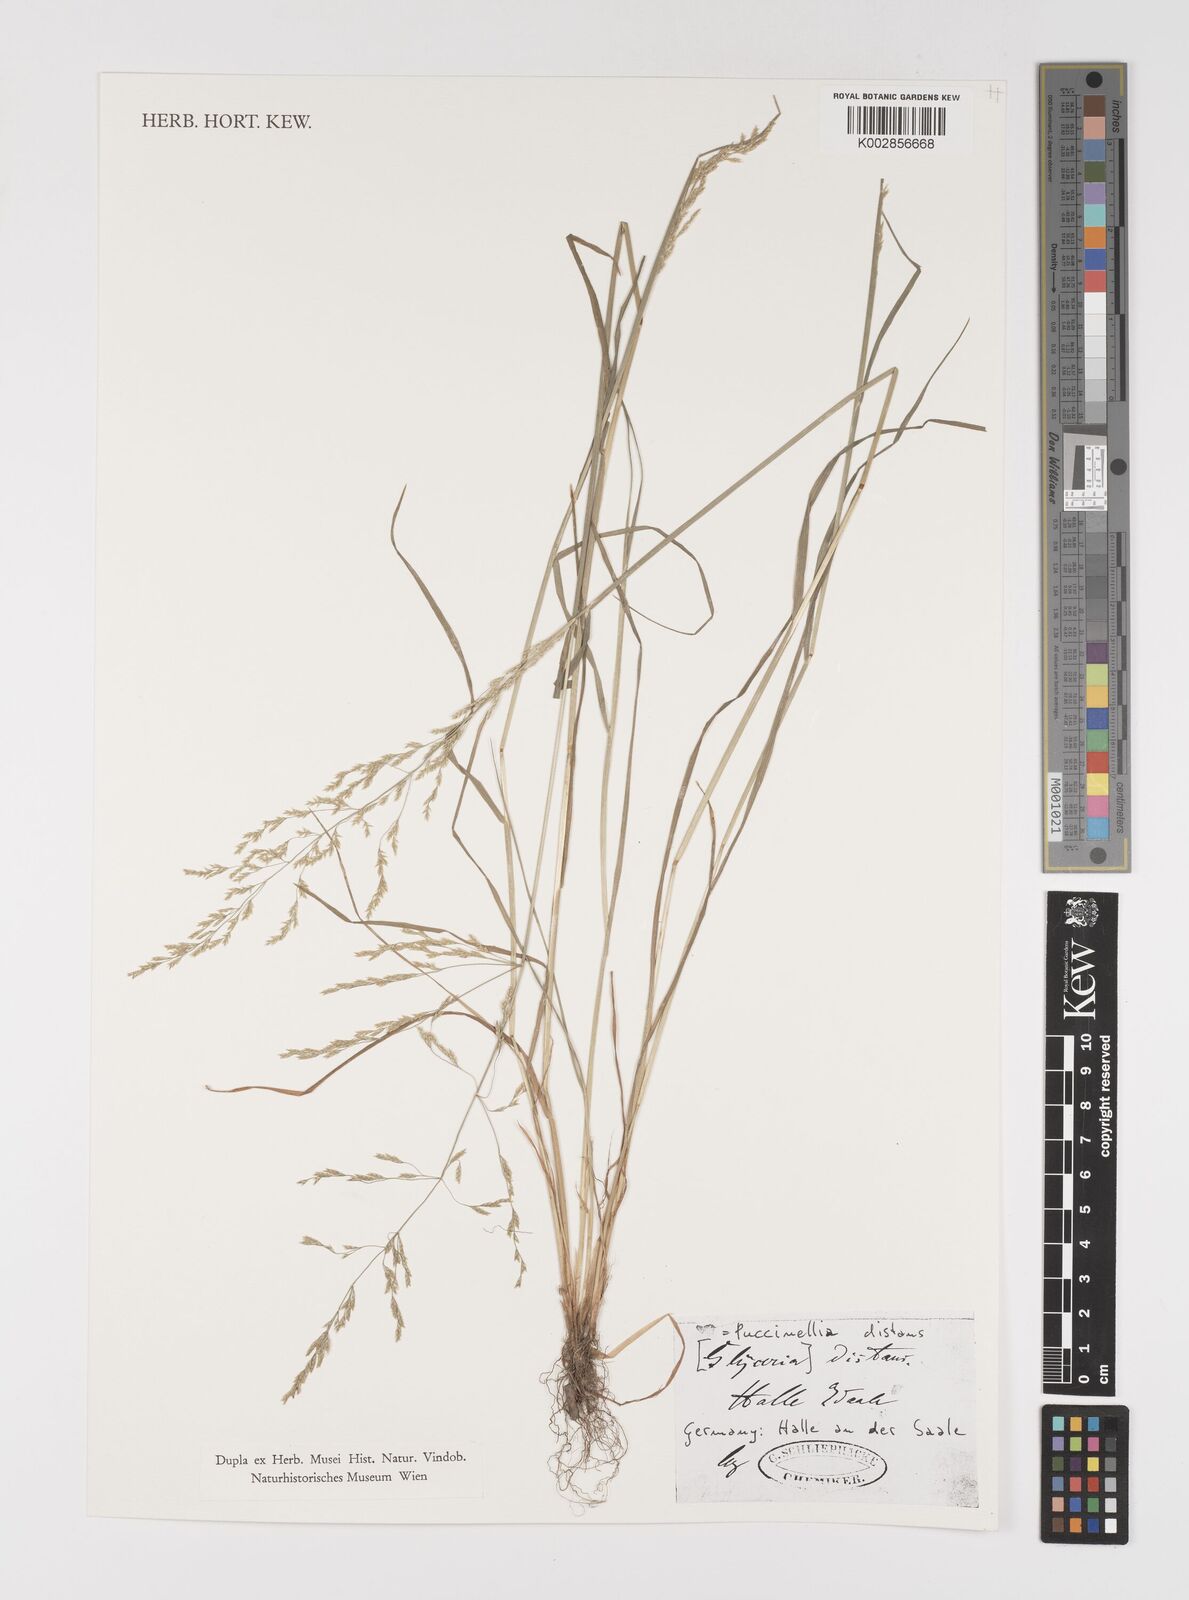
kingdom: Plantae
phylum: Tracheophyta
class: Liliopsida
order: Poales
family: Poaceae
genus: Puccinellia
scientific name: Puccinellia
